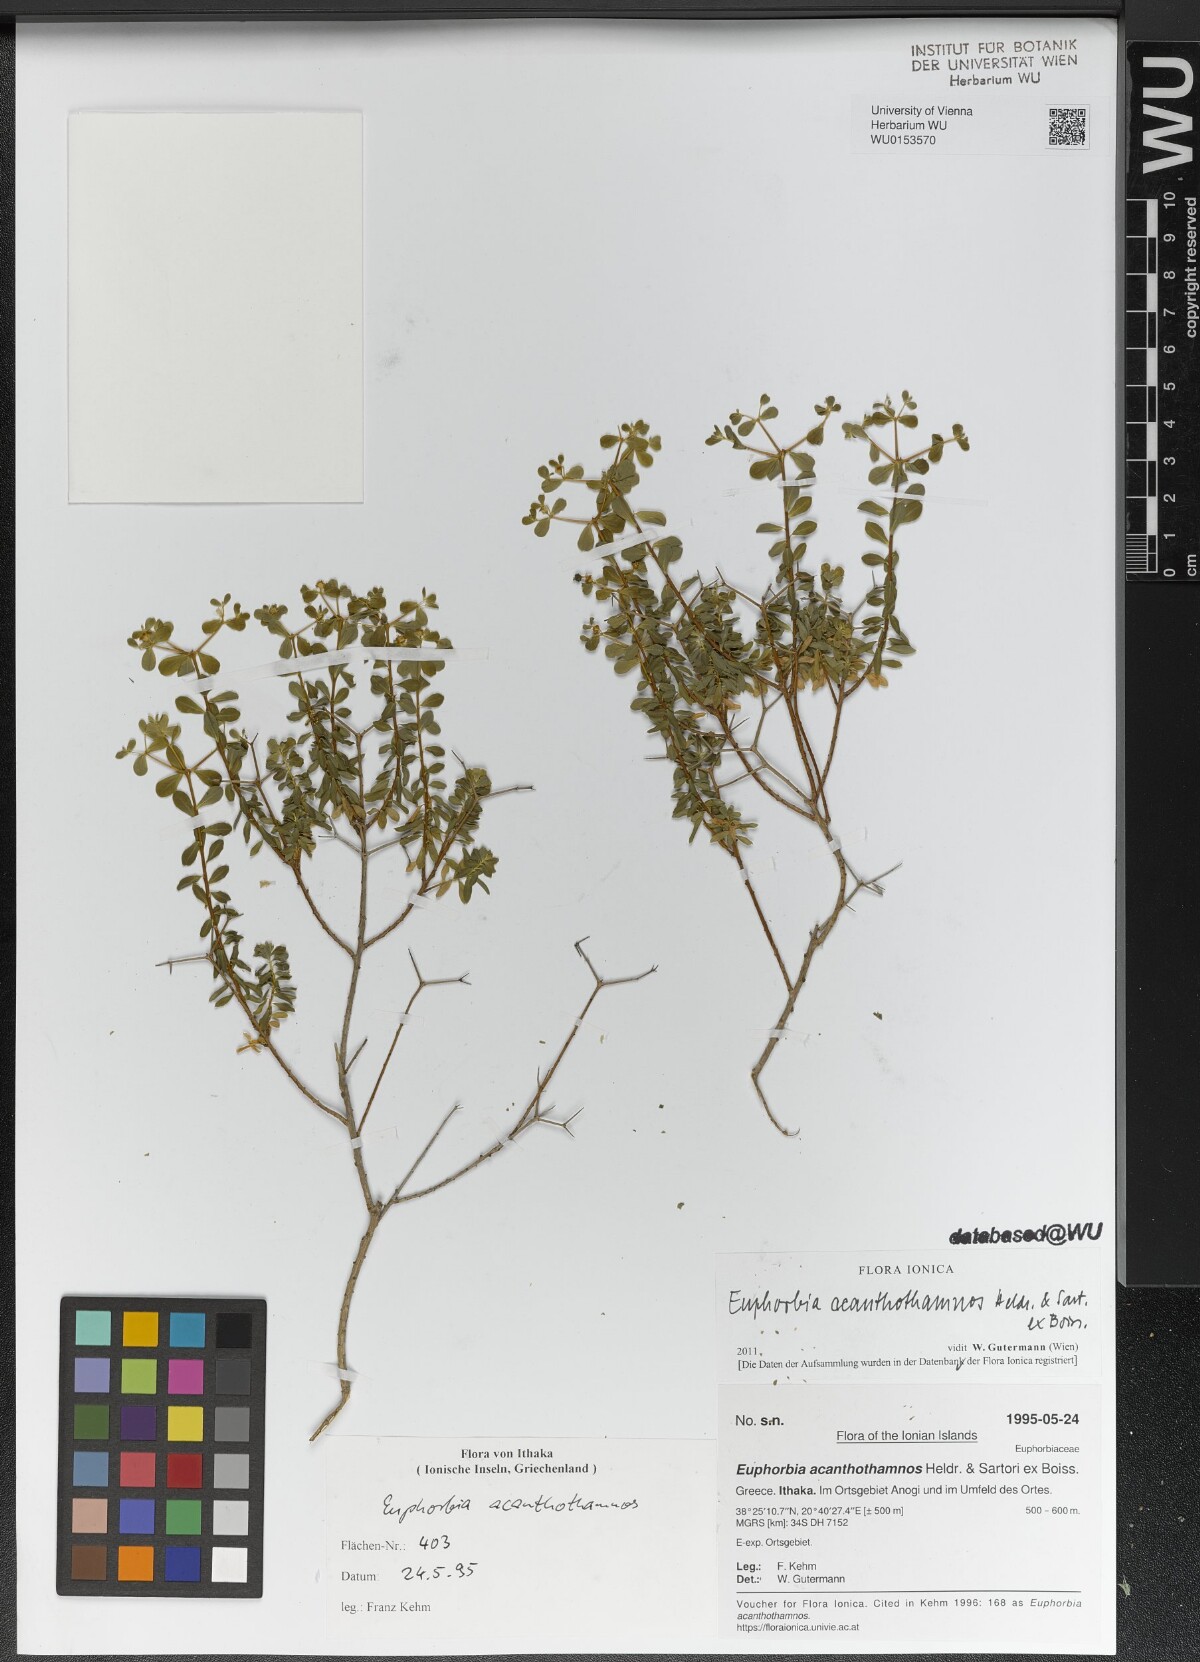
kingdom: Plantae
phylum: Tracheophyta
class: Magnoliopsida
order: Malpighiales
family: Euphorbiaceae
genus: Euphorbia
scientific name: Euphorbia acanthothamnos
